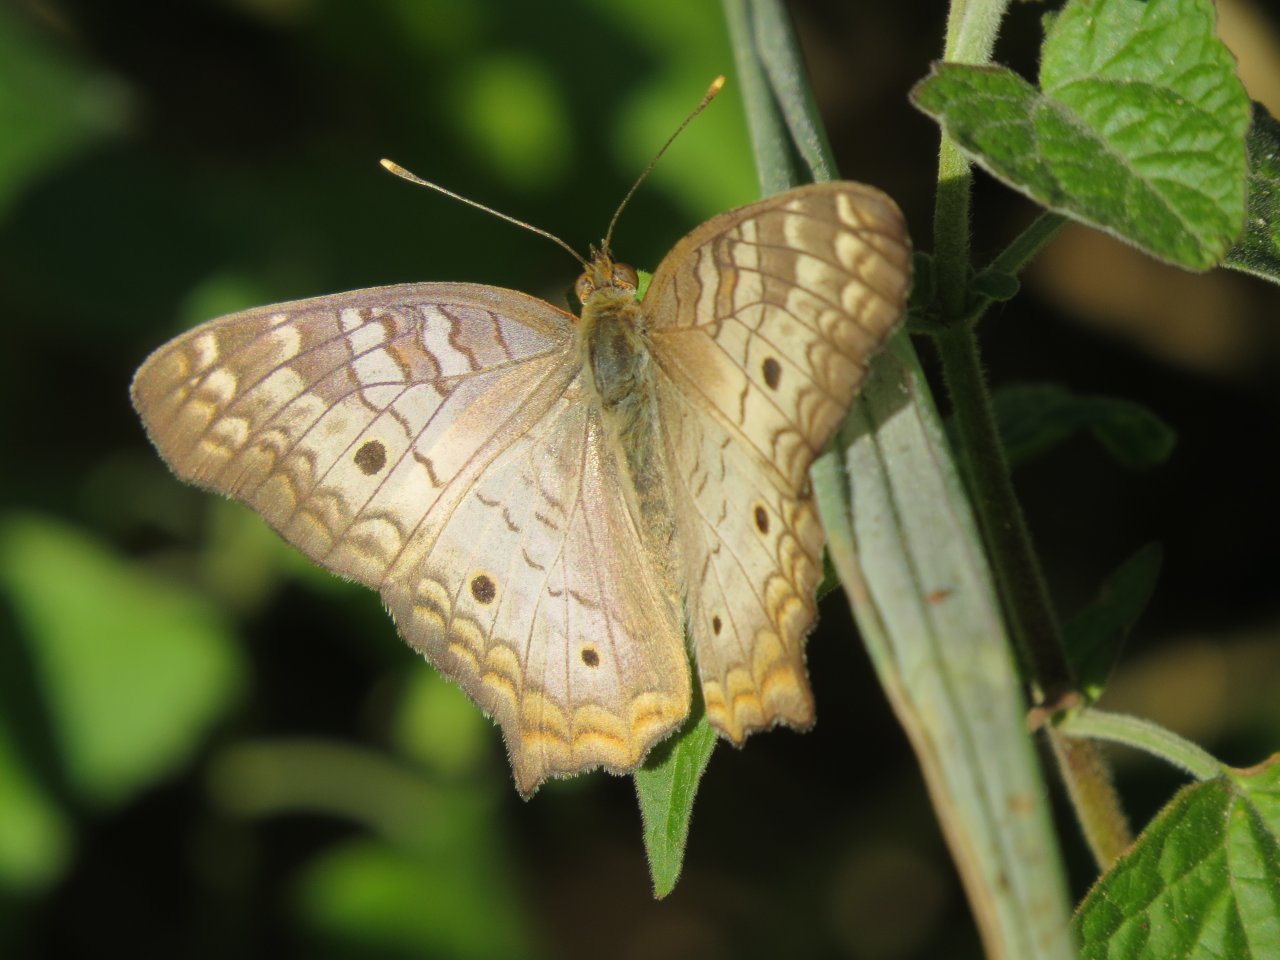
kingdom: Animalia
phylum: Arthropoda
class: Insecta
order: Lepidoptera
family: Nymphalidae
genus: Anartia
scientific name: Anartia jatrophae
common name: White Peacock
